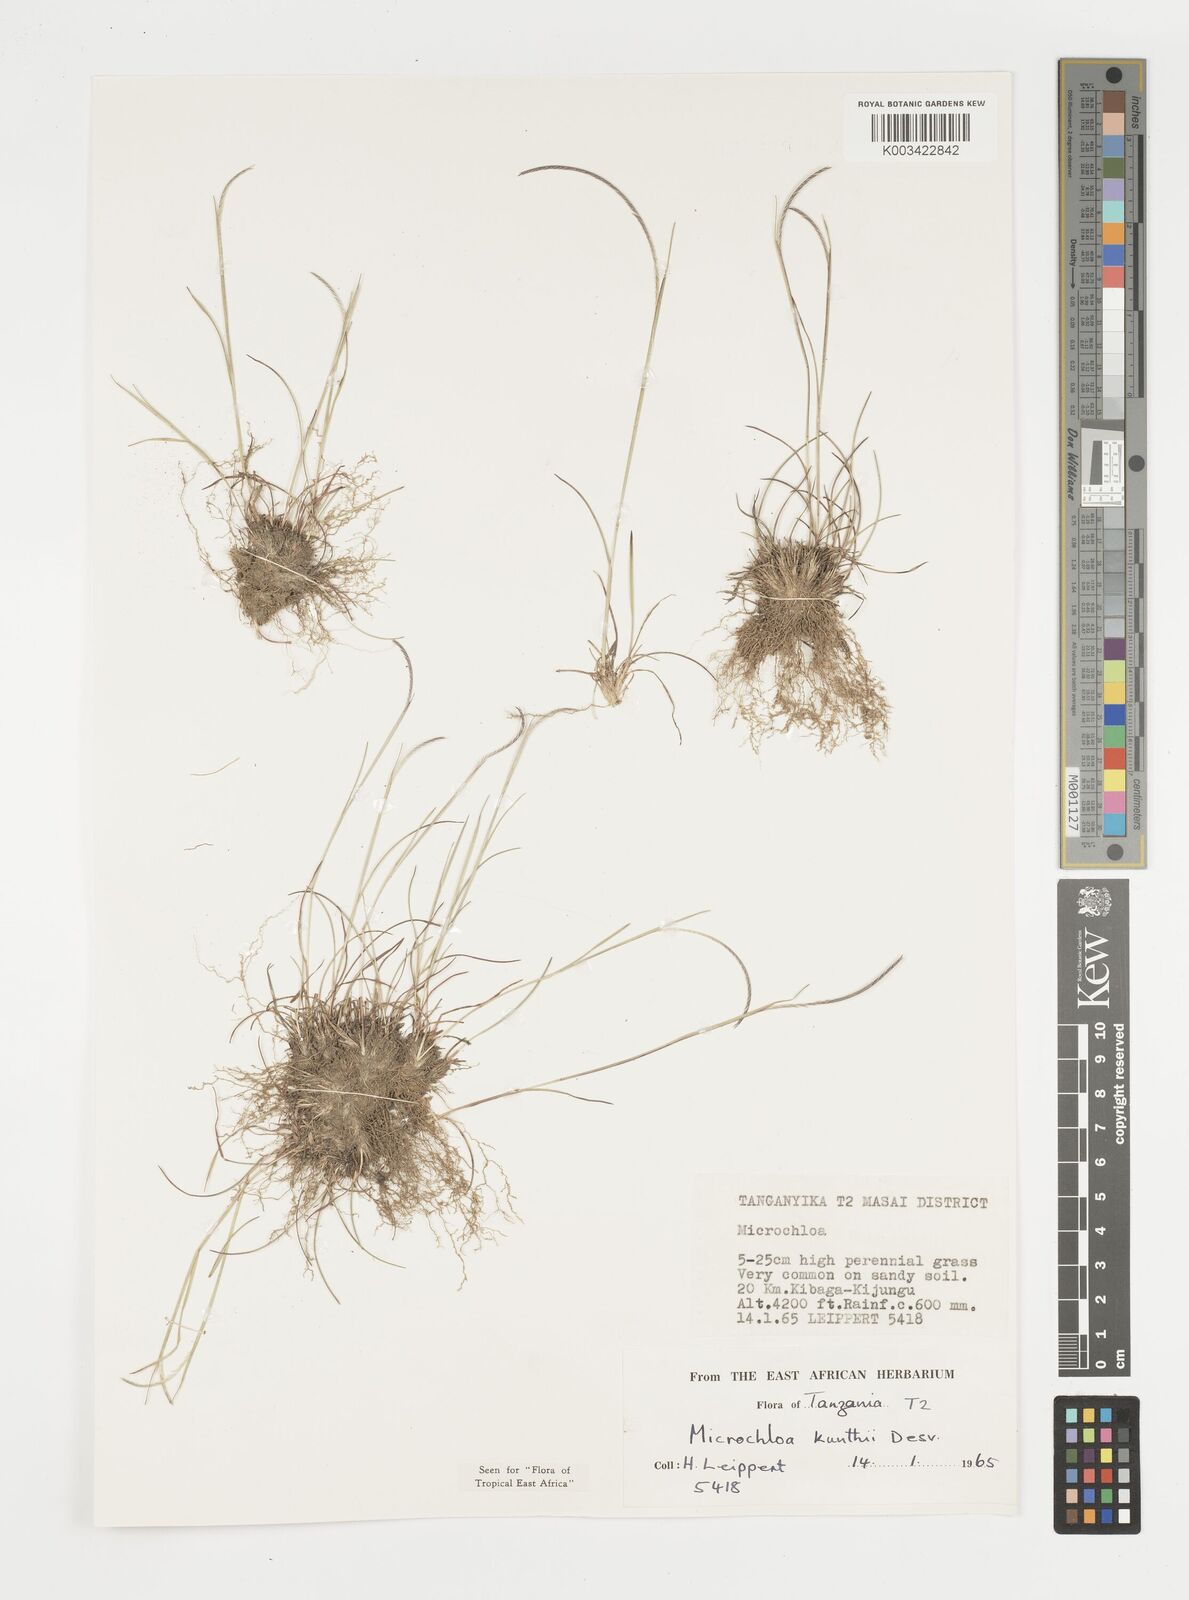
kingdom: Plantae
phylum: Tracheophyta
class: Liliopsida
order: Poales
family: Poaceae
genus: Microchloa
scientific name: Microchloa kunthii
